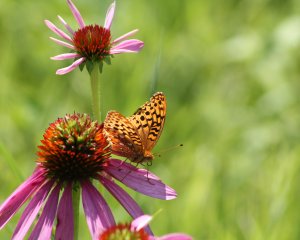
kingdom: Animalia
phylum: Arthropoda
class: Insecta
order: Lepidoptera
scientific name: Lepidoptera
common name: Butterflies
